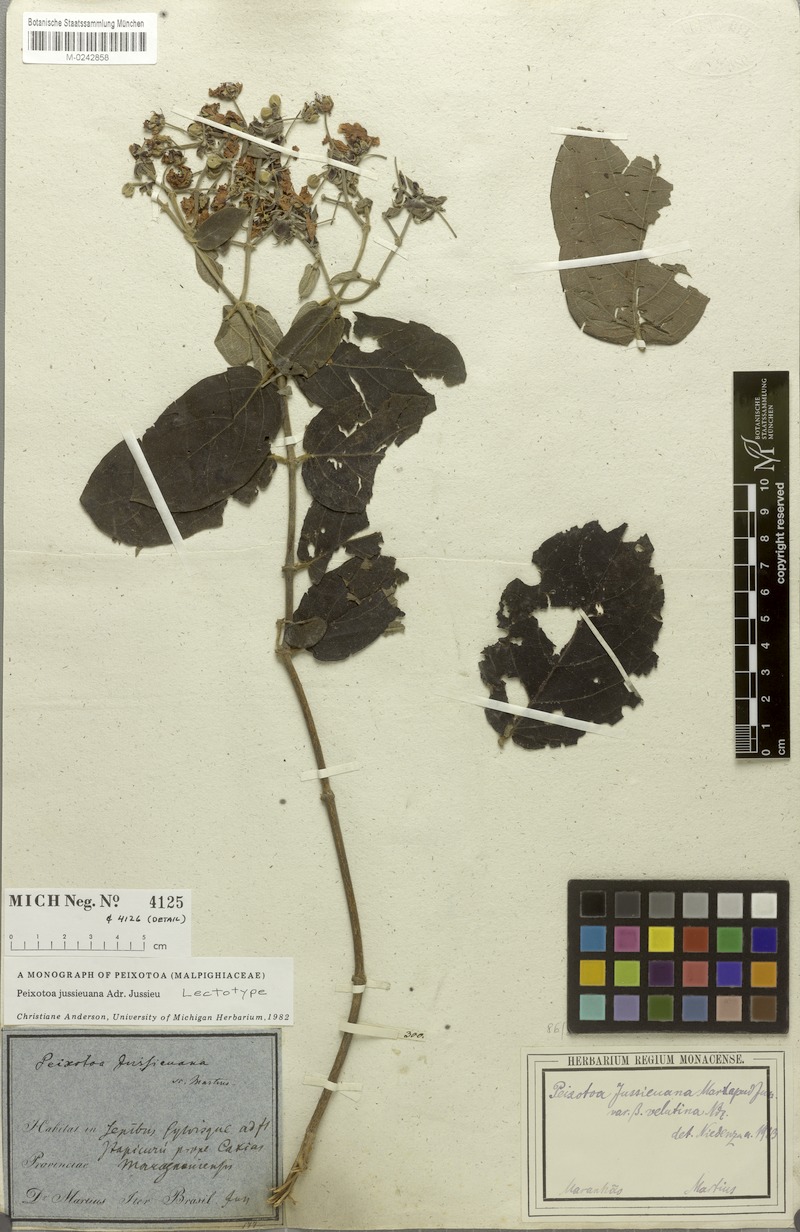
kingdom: Plantae
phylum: Tracheophyta
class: Magnoliopsida
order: Malpighiales
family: Malpighiaceae
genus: Peixotoa
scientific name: Peixotoa jussieuana
